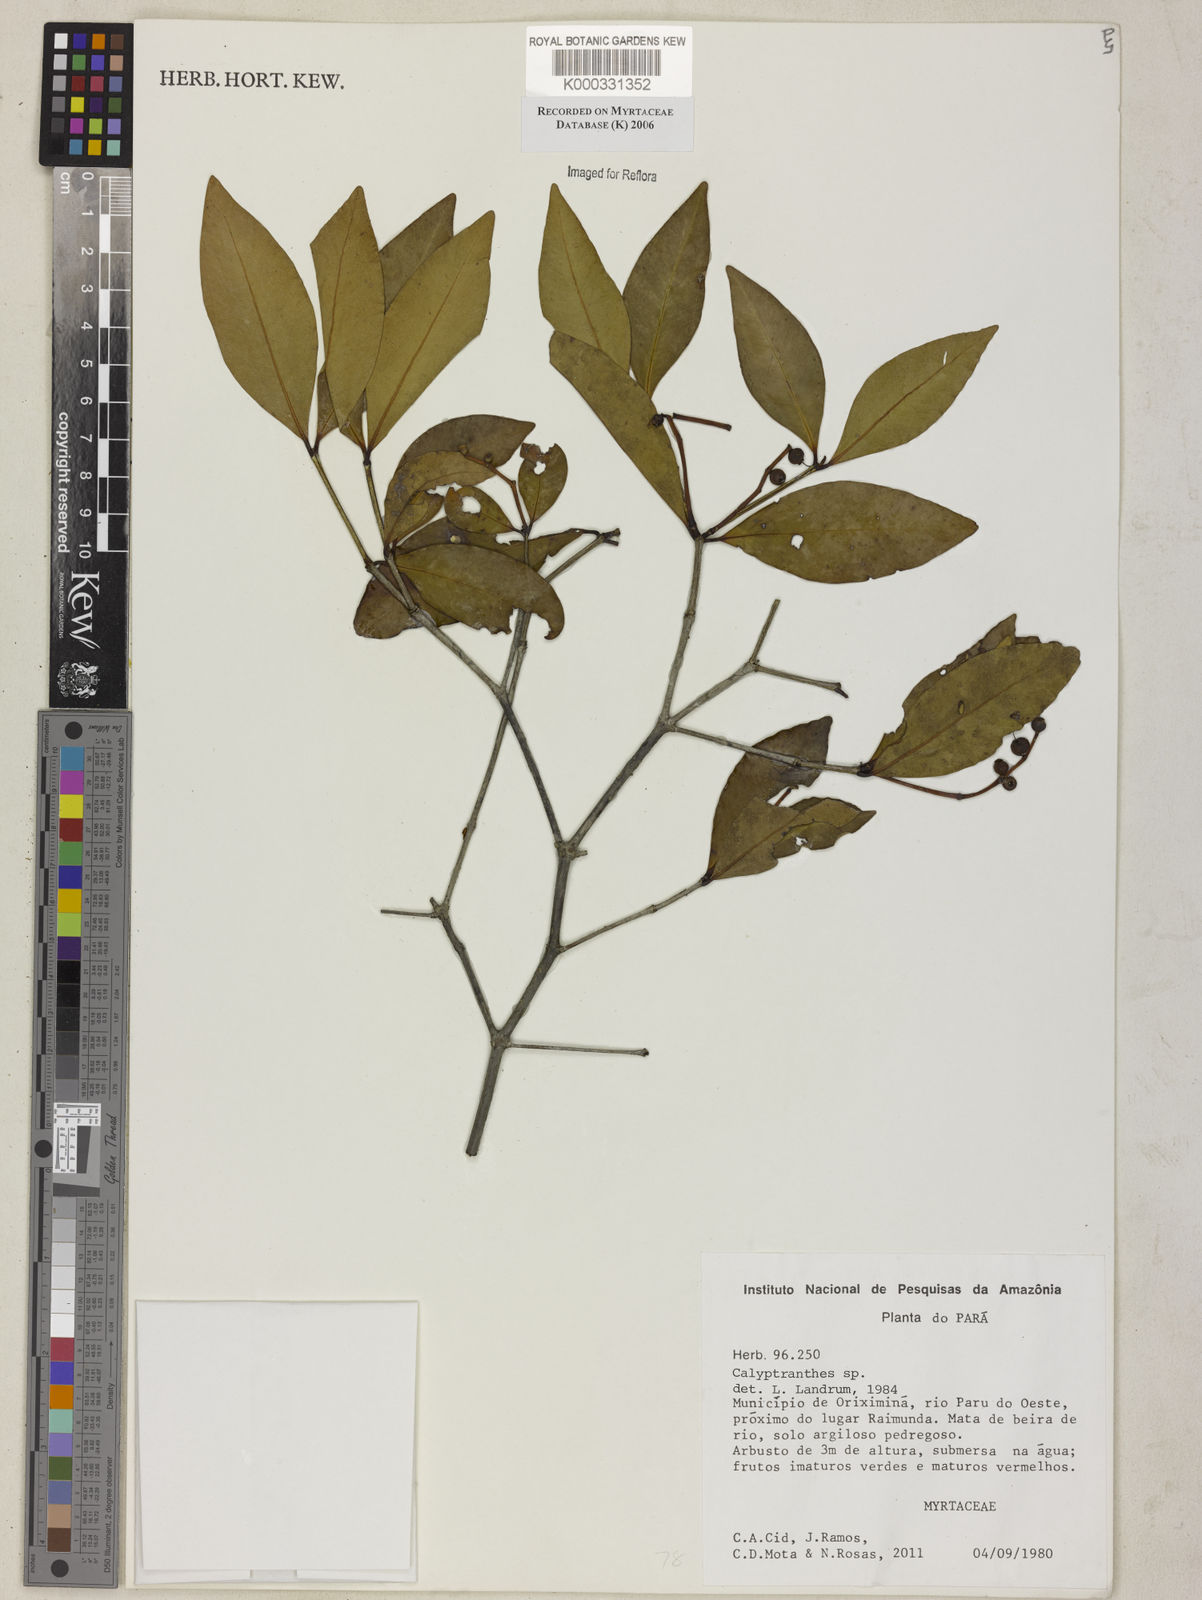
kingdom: Plantae
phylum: Tracheophyta
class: Magnoliopsida
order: Myrtales
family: Myrtaceae
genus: Calyptranthes
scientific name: Calyptranthes
